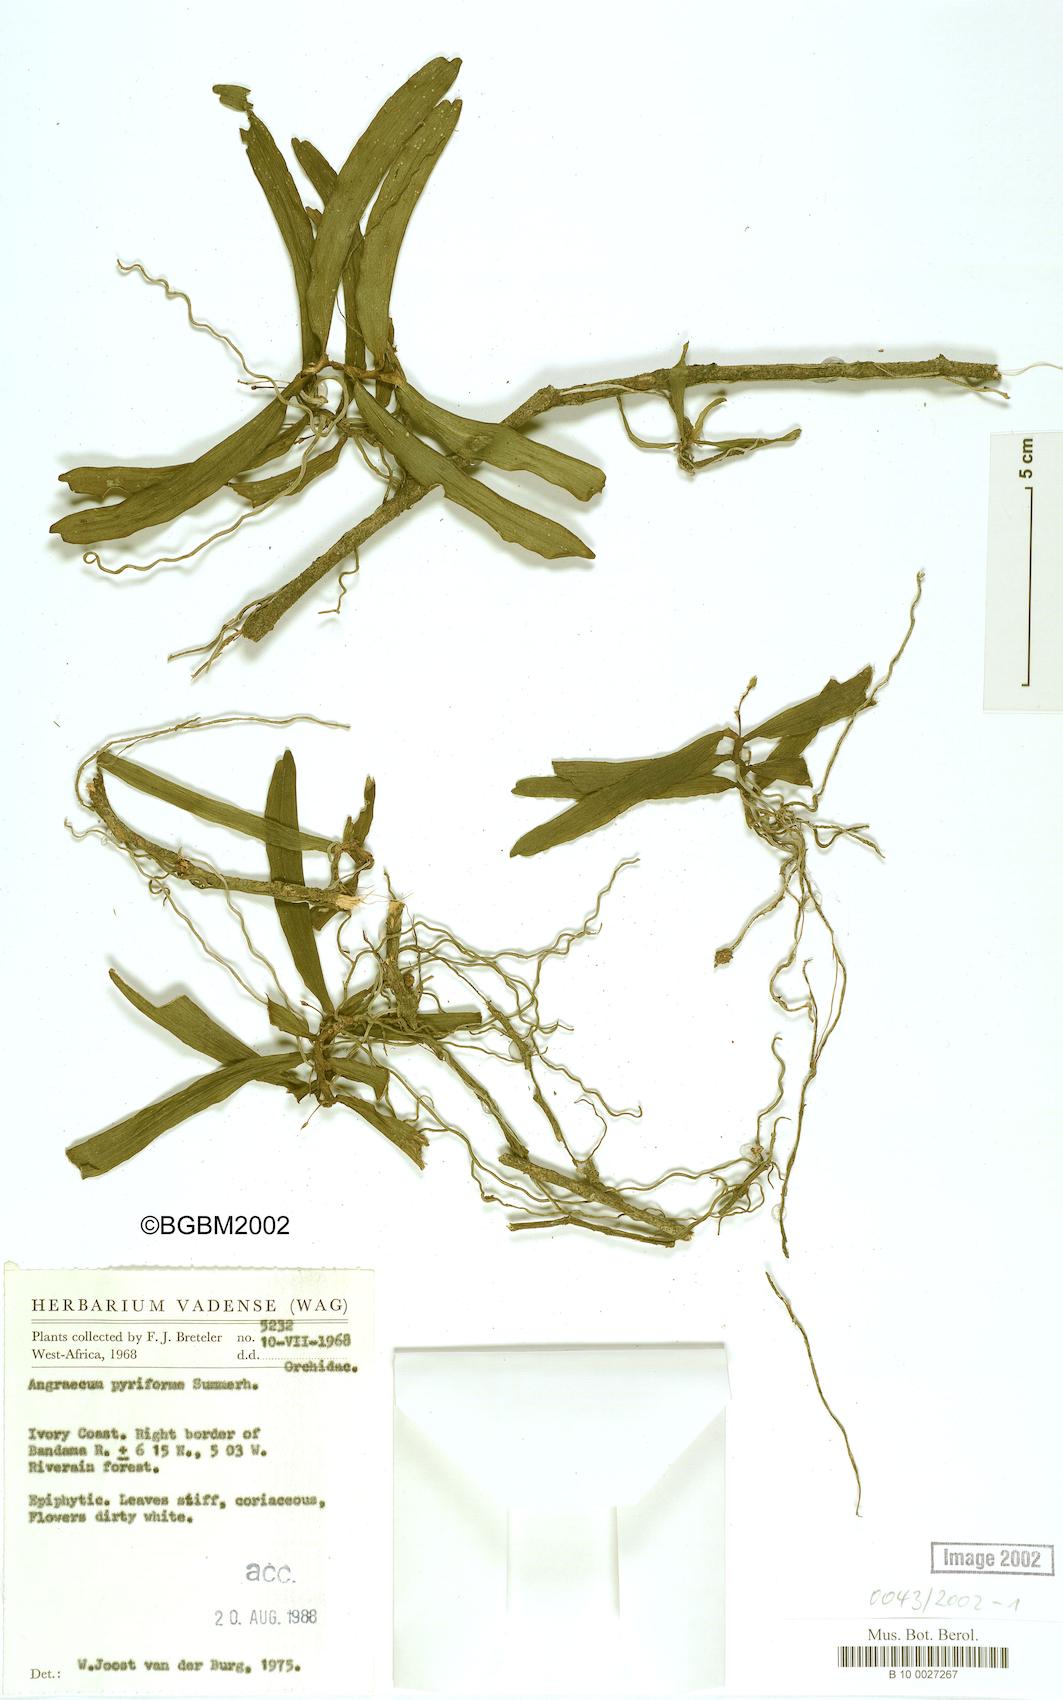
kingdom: Plantae
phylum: Tracheophyta
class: Liliopsida
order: Asparagales
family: Orchidaceae
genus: Angraecum
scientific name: Angraecum pyriforme
